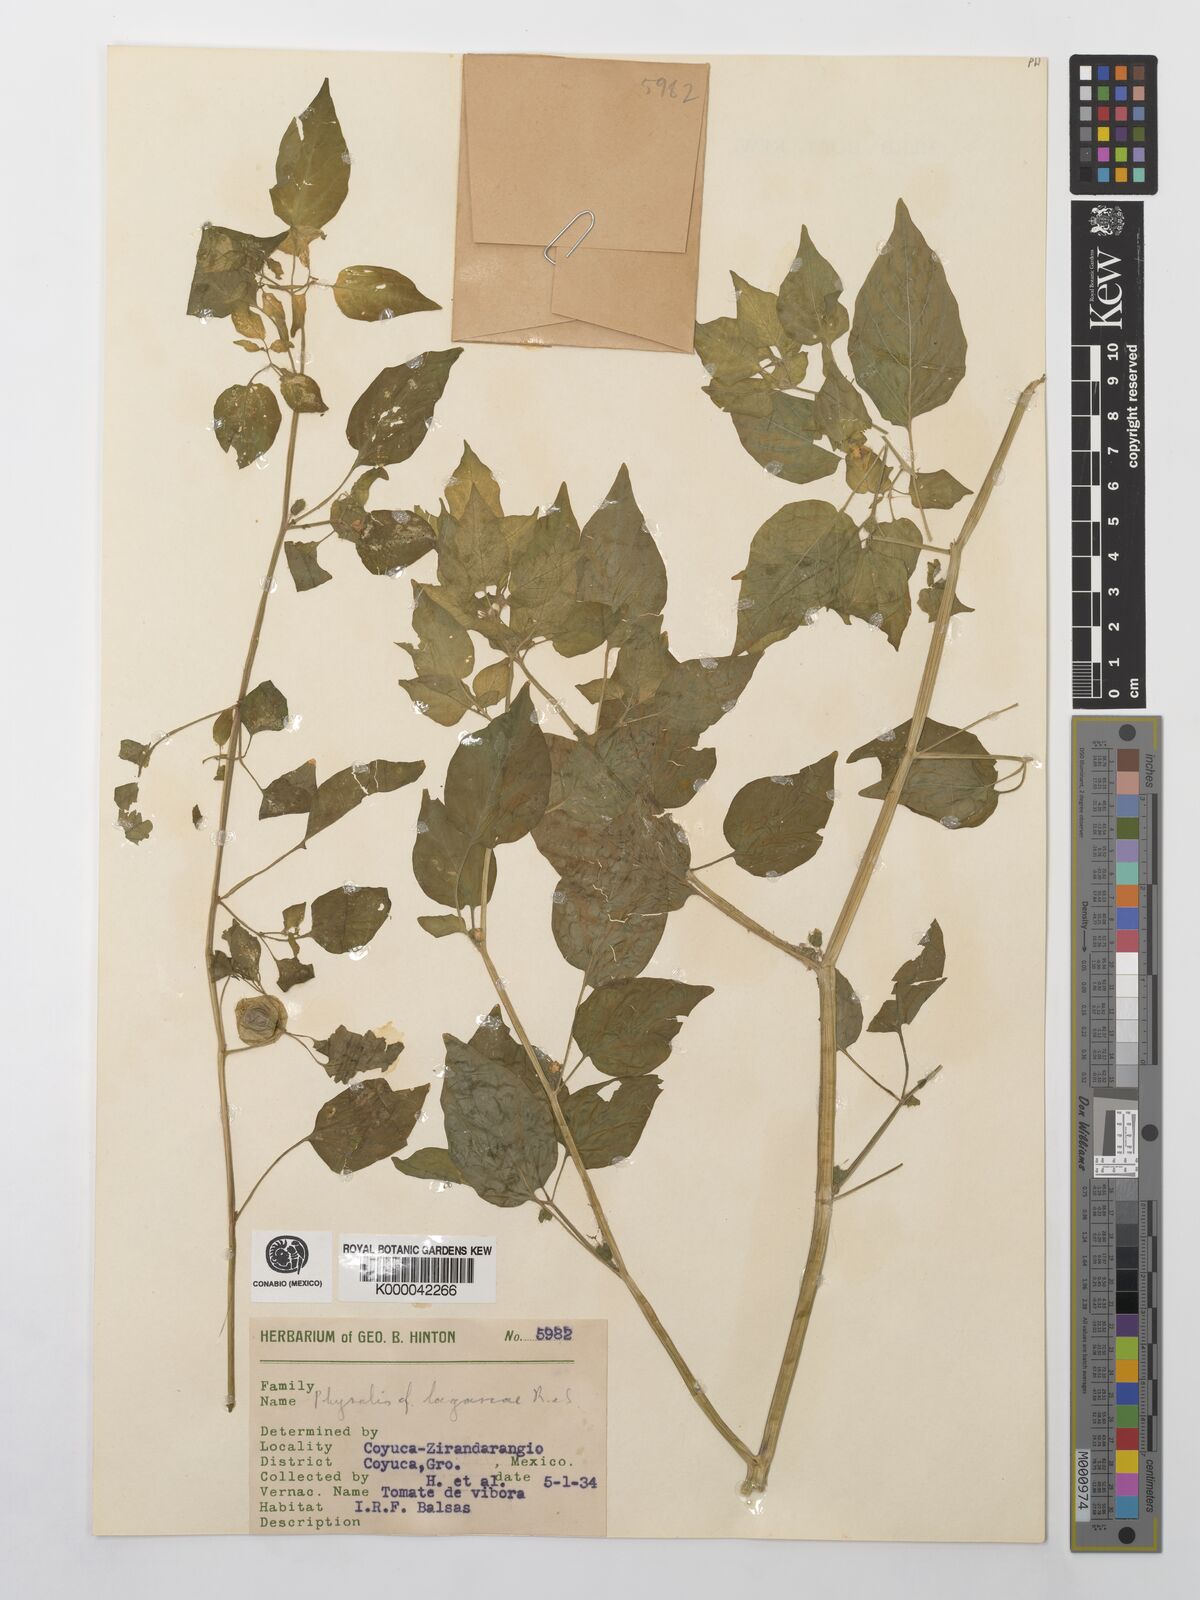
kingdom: Plantae
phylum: Tracheophyta
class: Magnoliopsida
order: Solanales
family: Solanaceae
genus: Physalis
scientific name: Physalis lagascae
